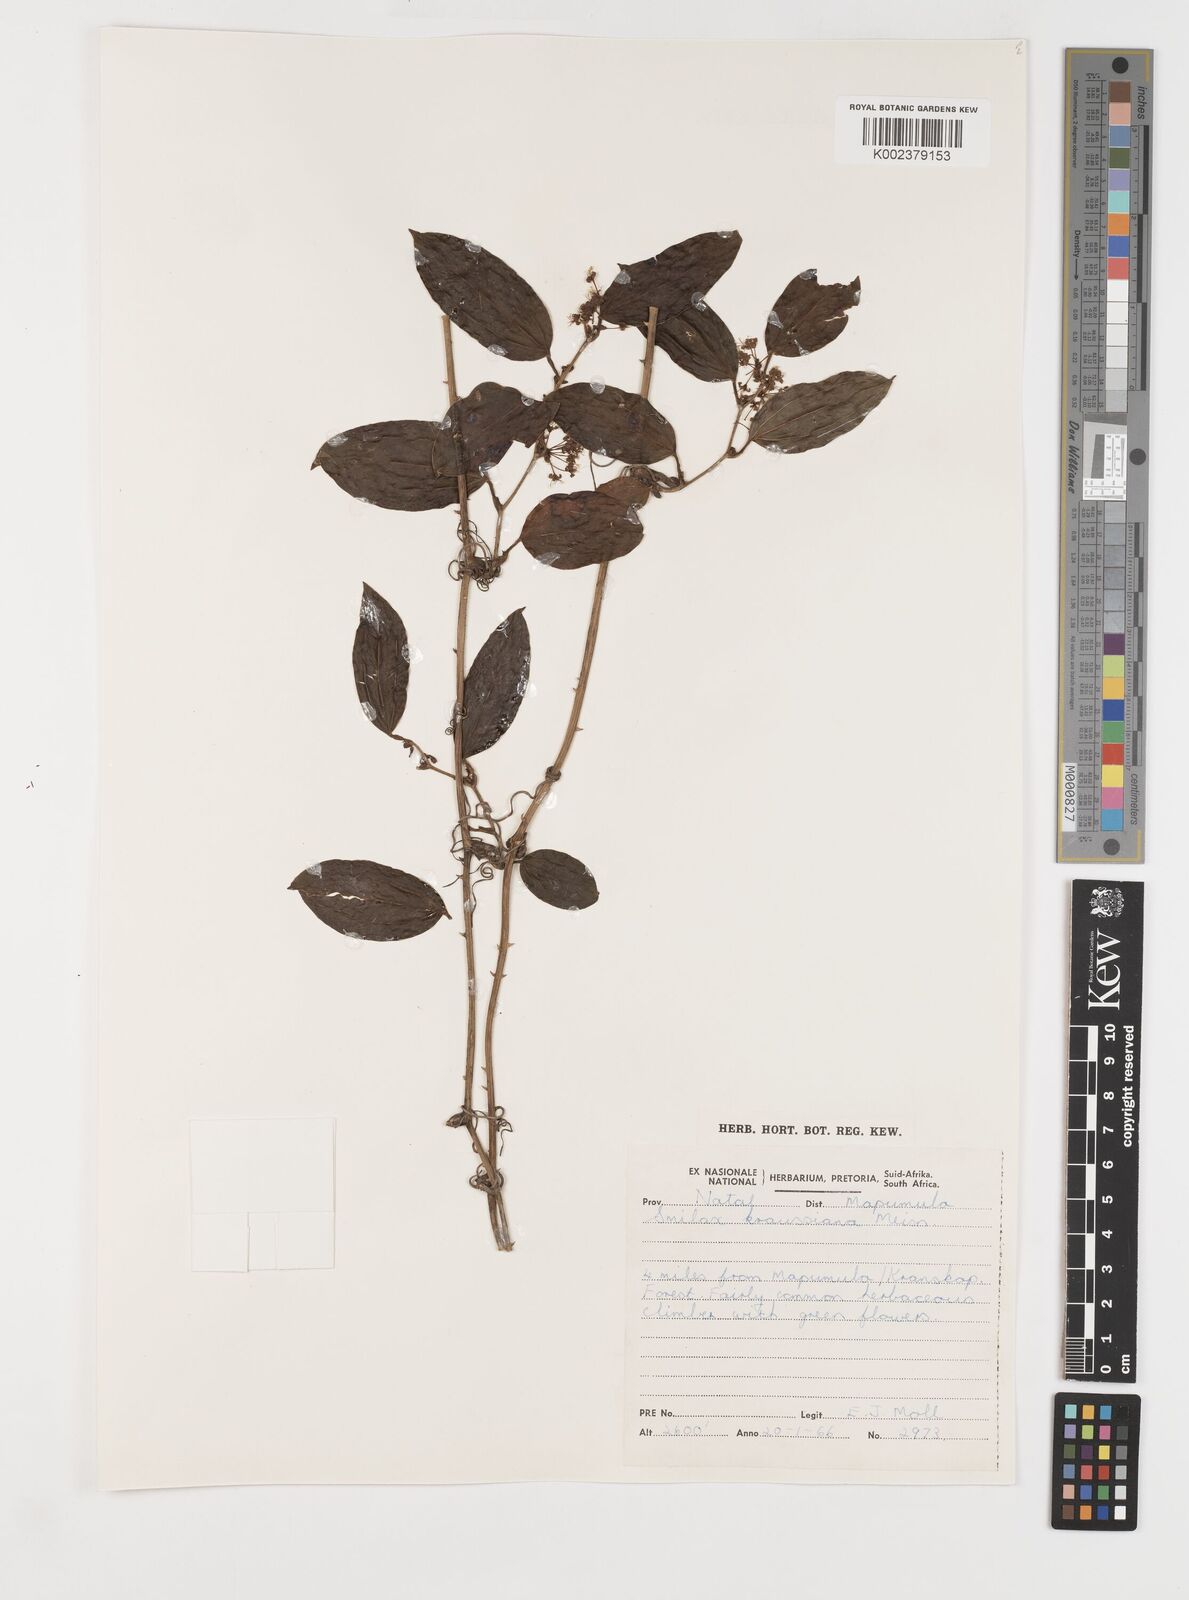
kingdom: Plantae
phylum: Tracheophyta
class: Liliopsida
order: Liliales
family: Smilacaceae
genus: Smilax
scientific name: Smilax anceps
